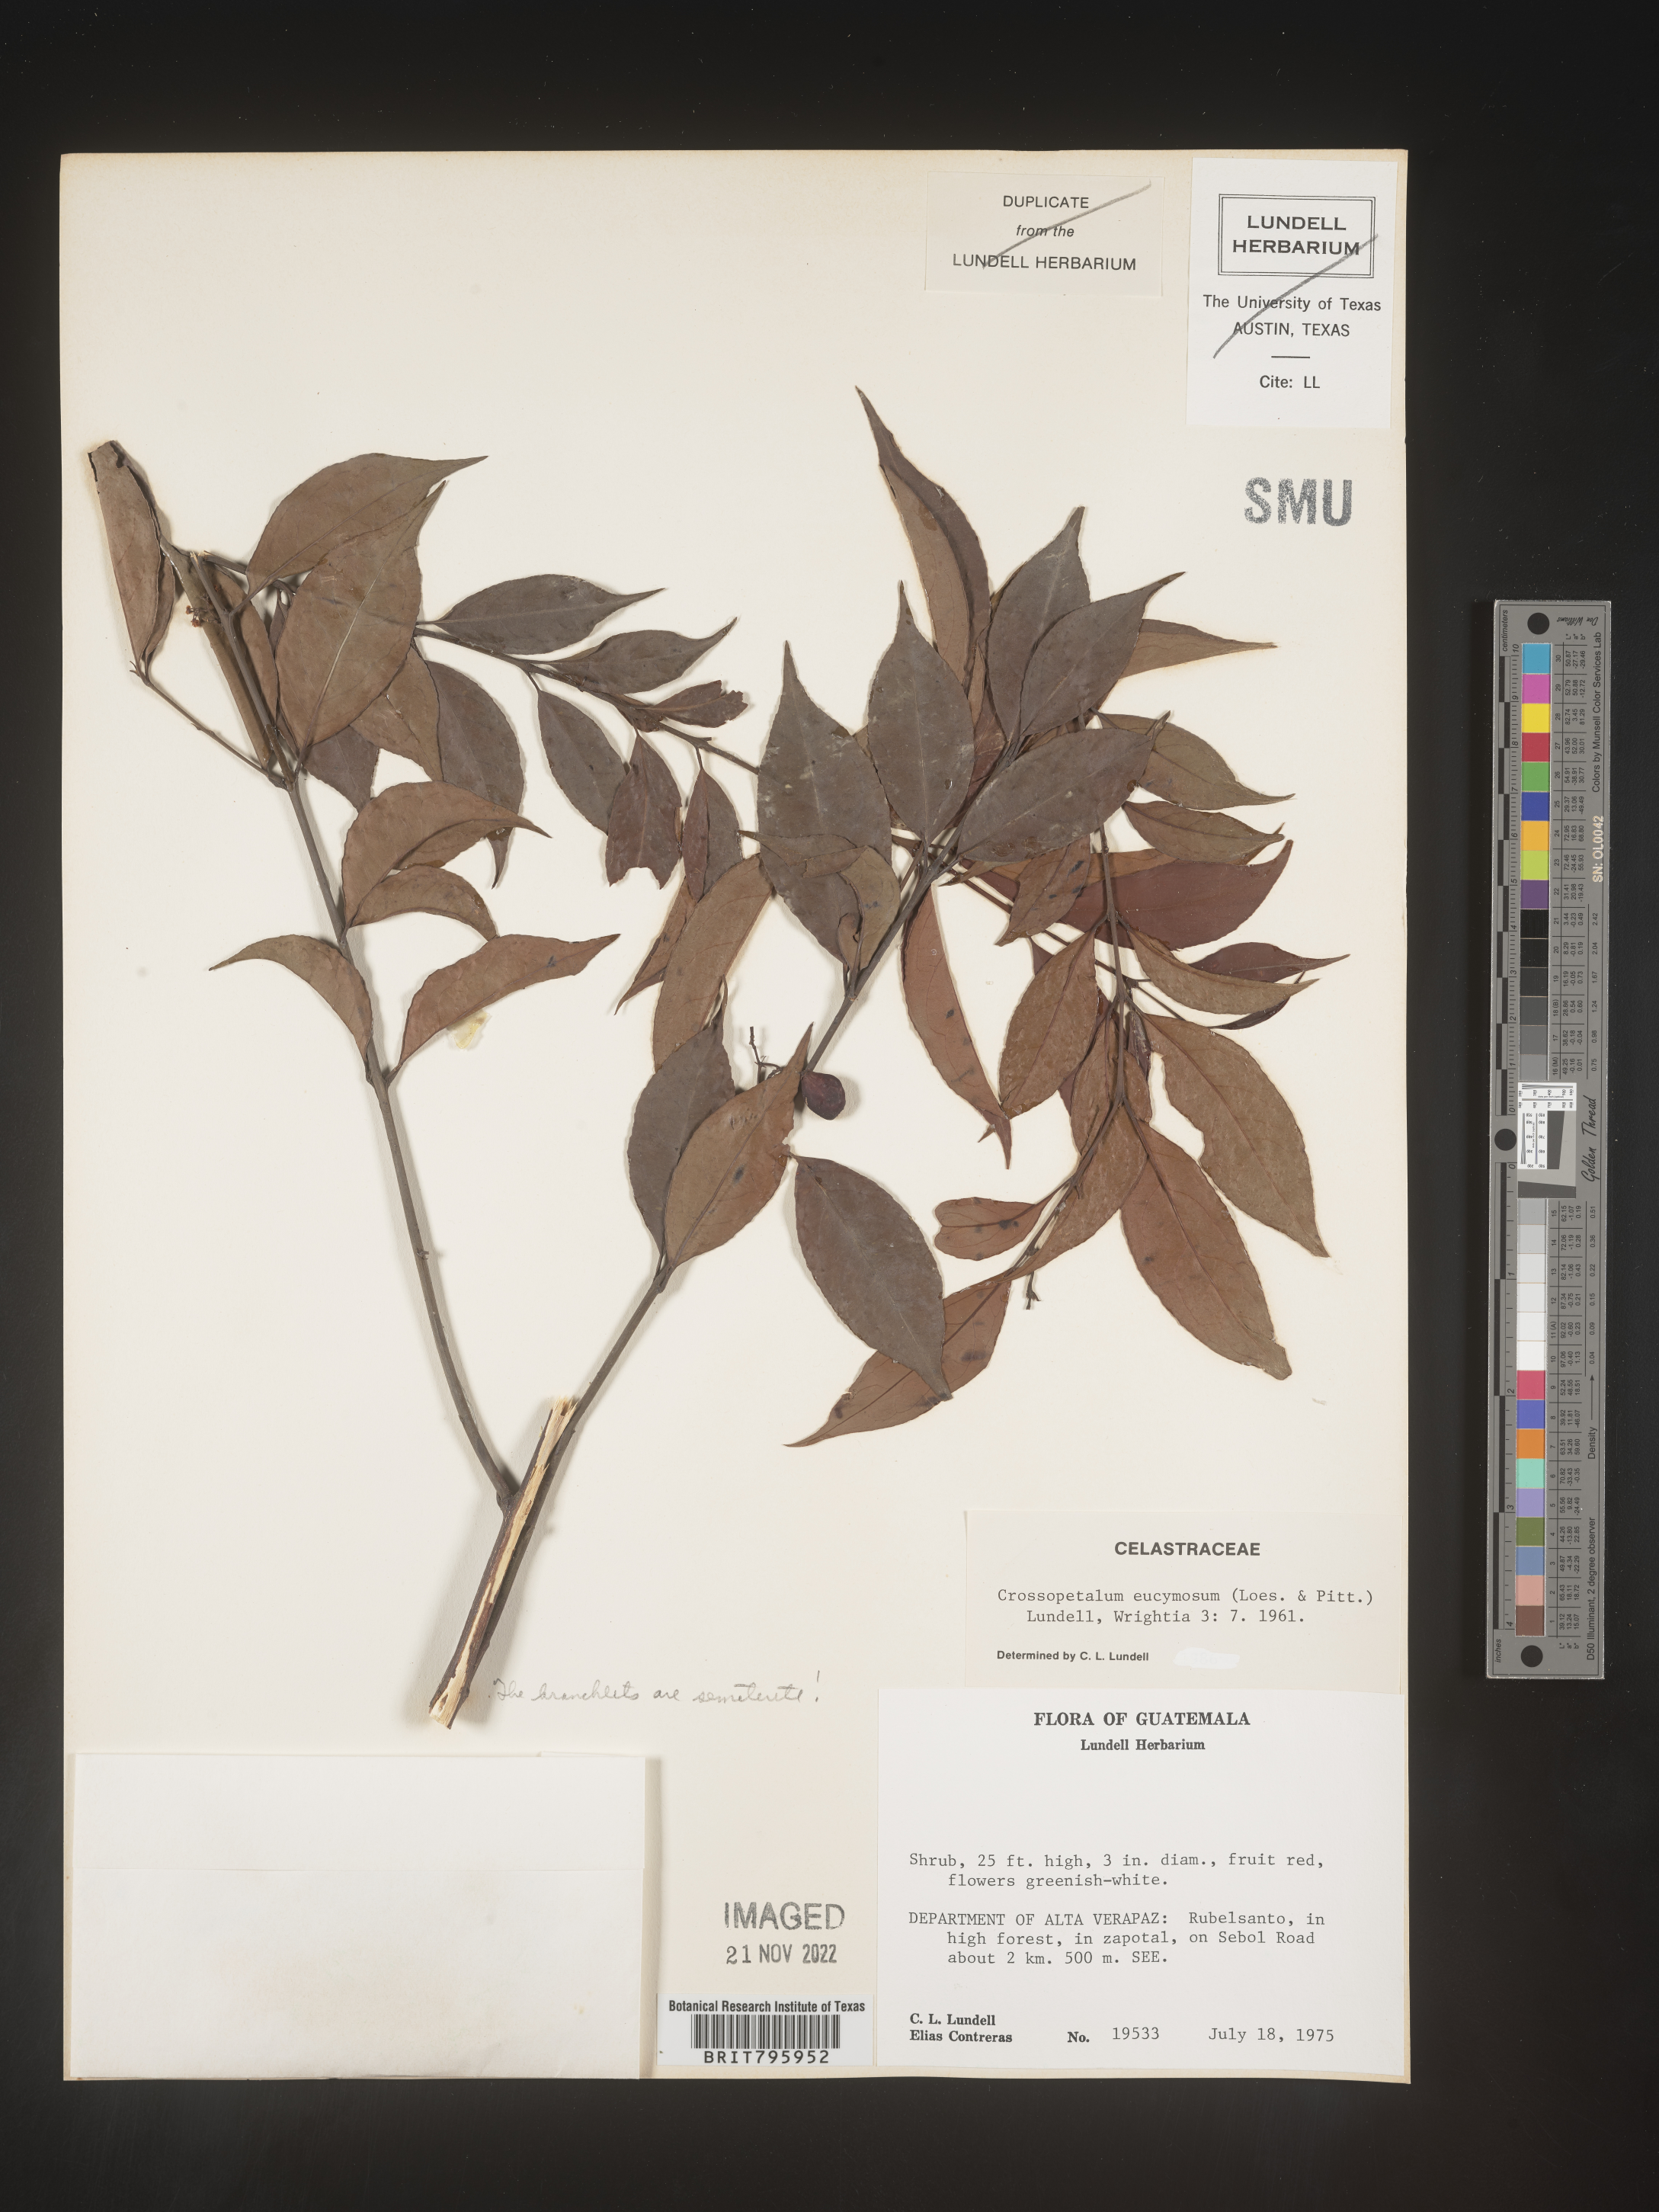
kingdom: Plantae
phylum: Tracheophyta
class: Magnoliopsida
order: Celastrales
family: Celastraceae
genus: Crossopetalum
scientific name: Crossopetalum
